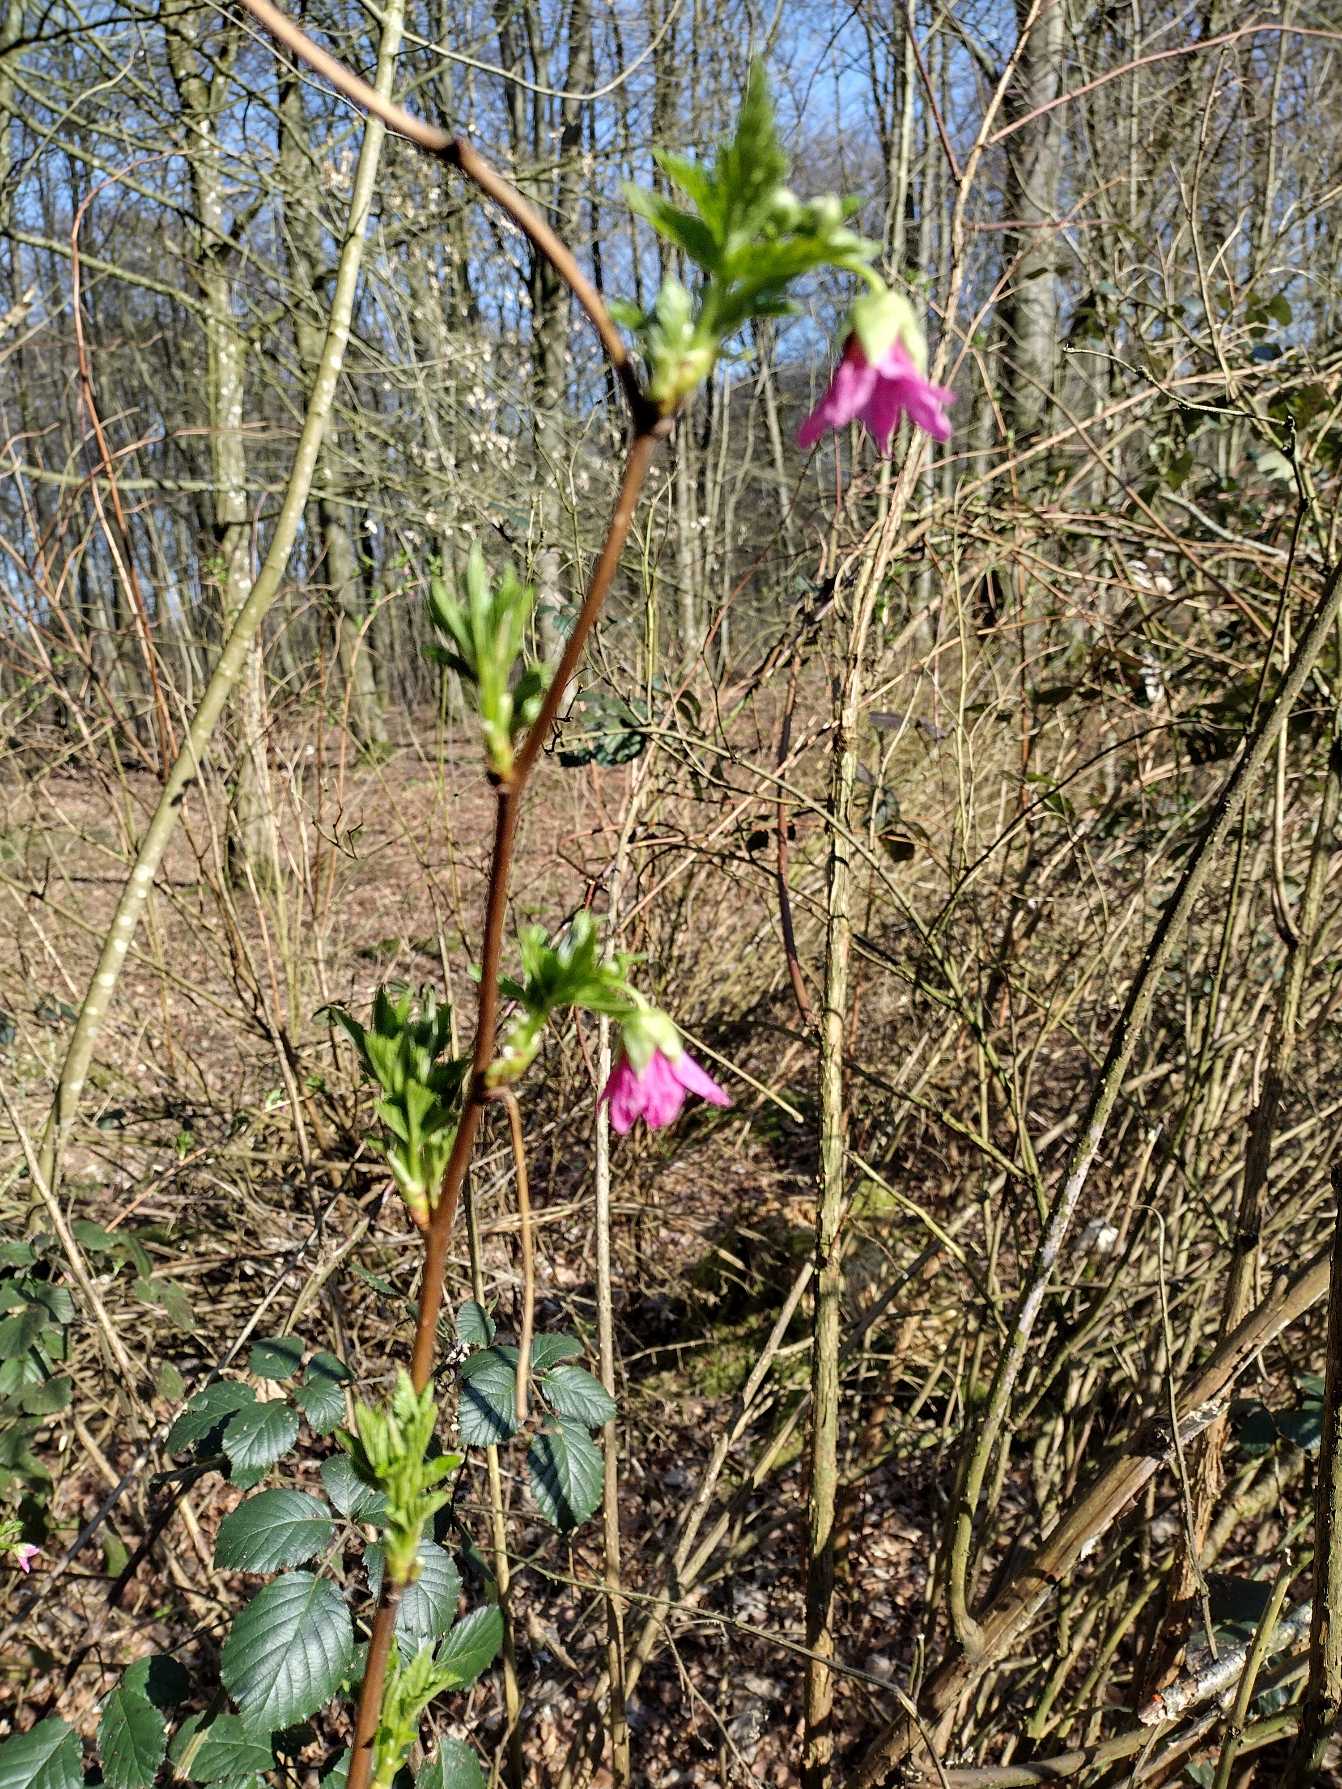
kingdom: Plantae
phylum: Tracheophyta
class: Magnoliopsida
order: Rosales
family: Rosaceae
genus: Rubus
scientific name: Rubus spectabilis
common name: Laksebær
